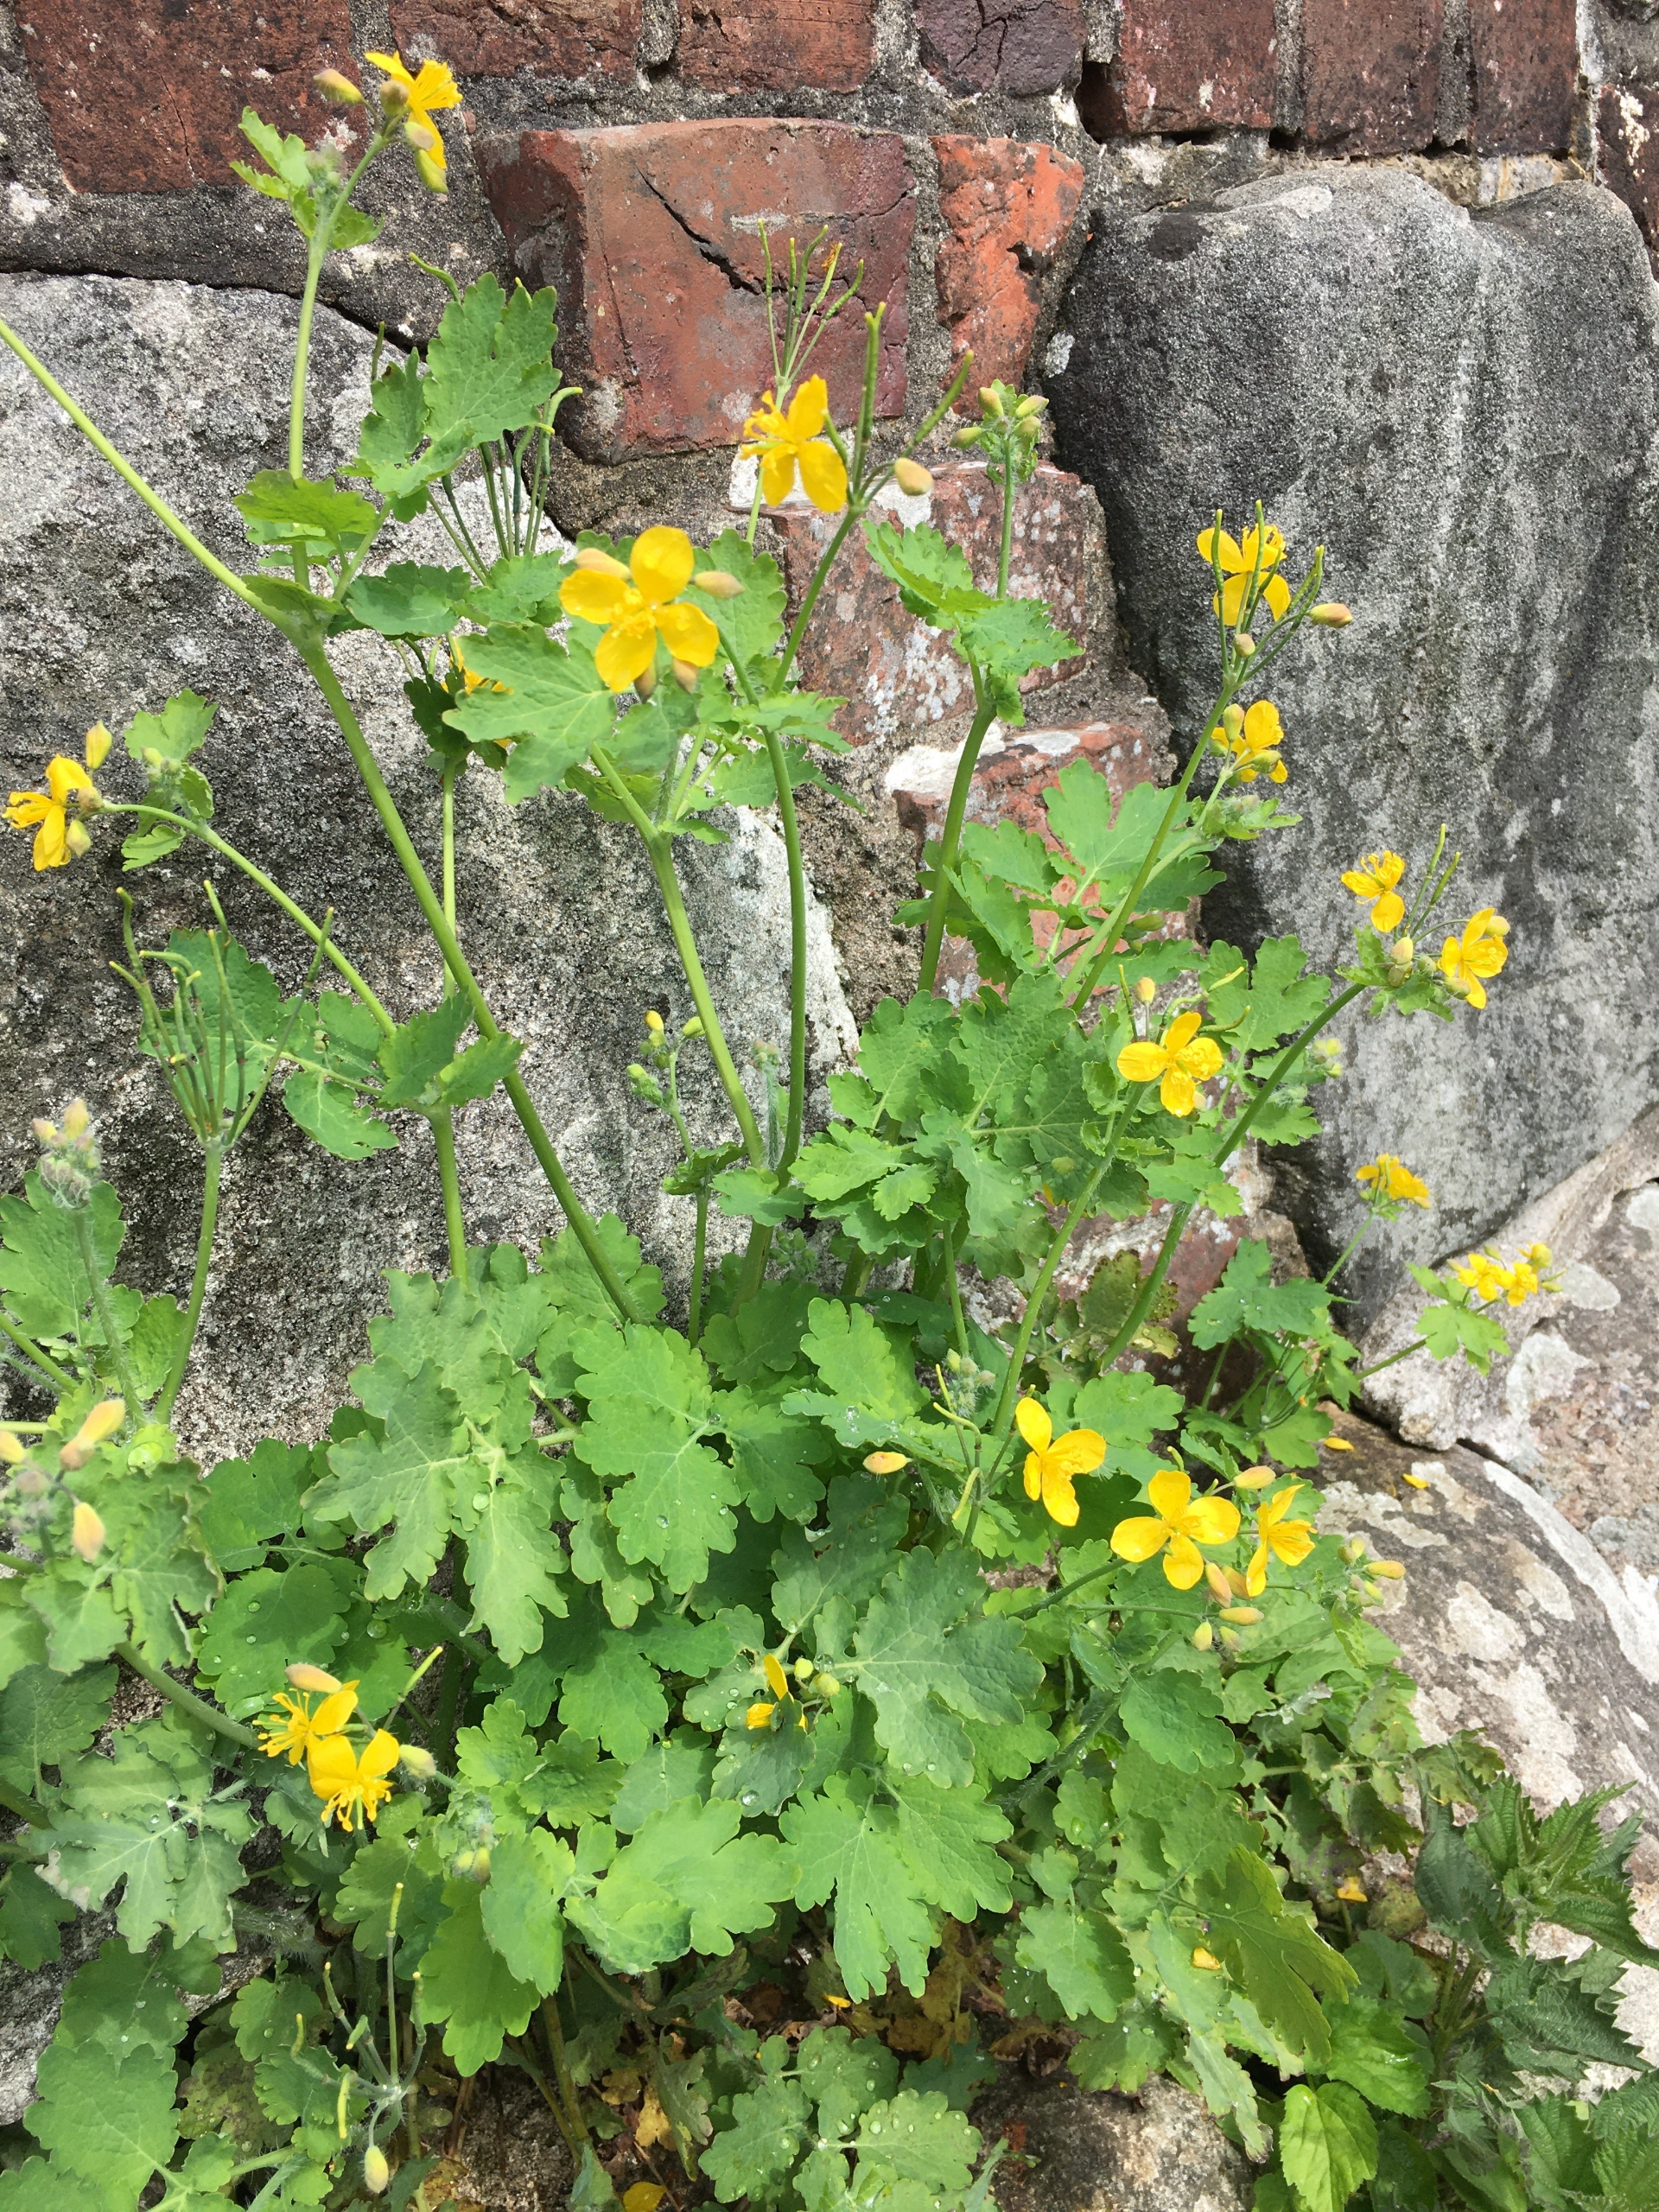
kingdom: Plantae
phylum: Tracheophyta
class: Magnoliopsida
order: Ranunculales
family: Papaveraceae
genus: Chelidonium
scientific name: Chelidonium majus
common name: Svaleurt
